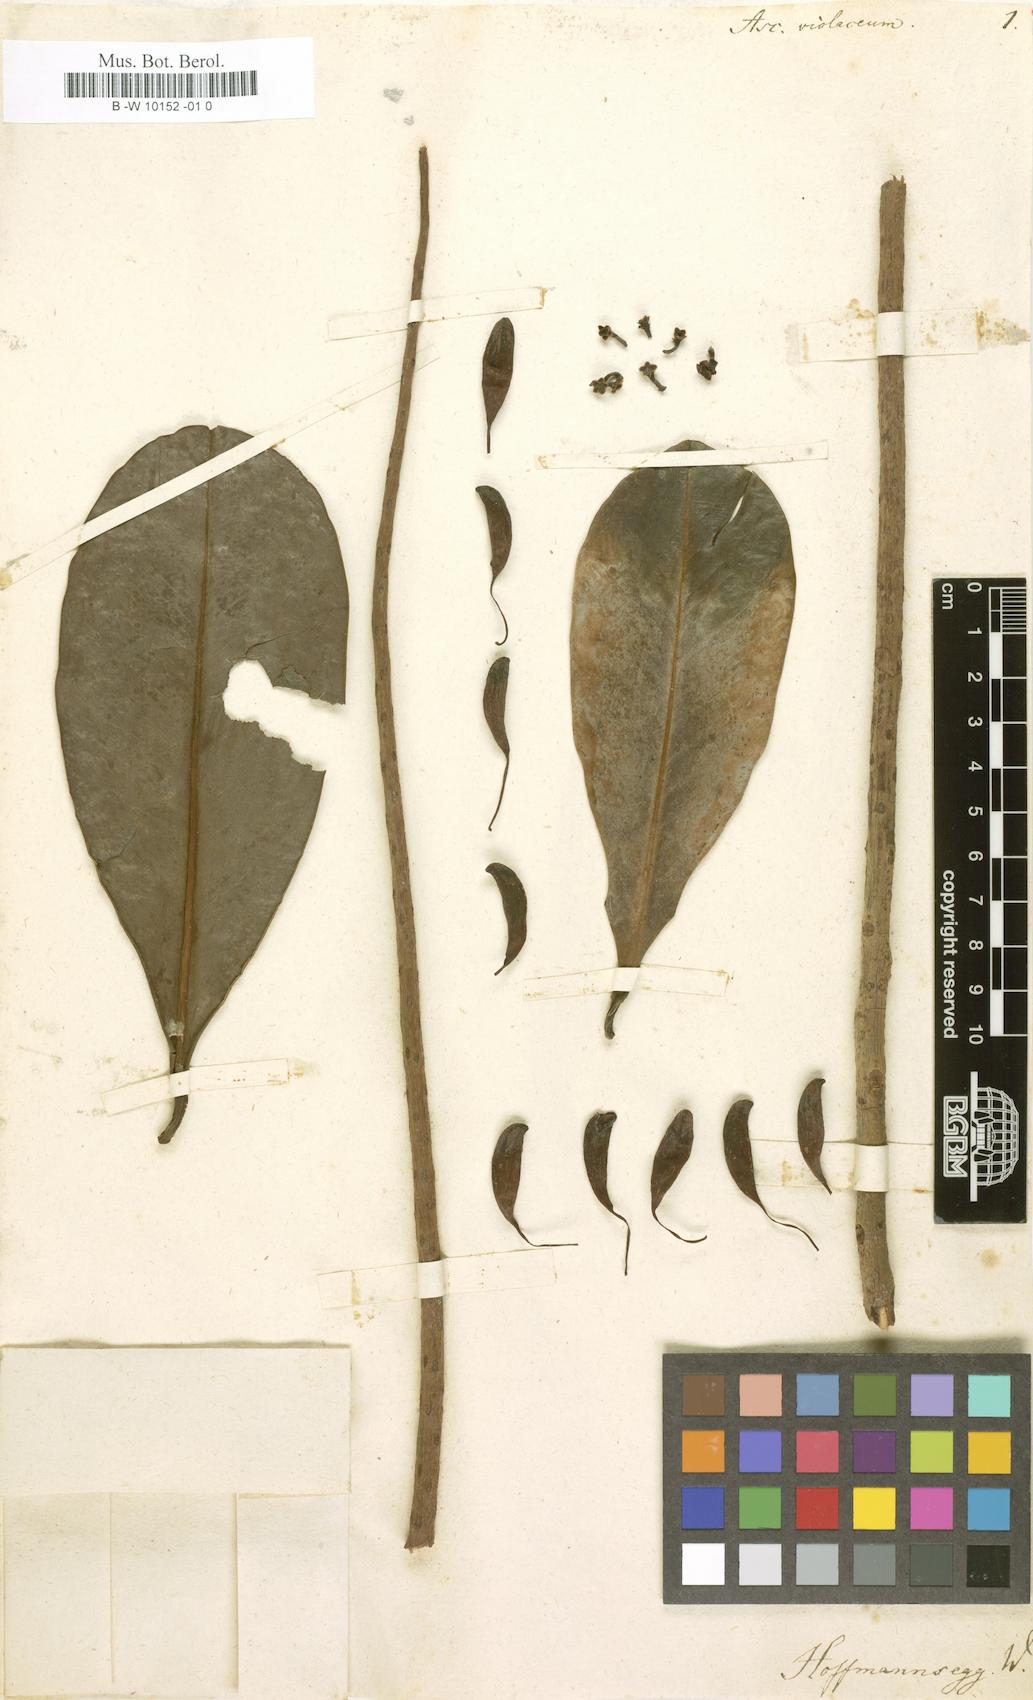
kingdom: Plantae
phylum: Tracheophyta
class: Magnoliopsida
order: Ericales
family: Marcgraviaceae
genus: Norantea
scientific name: Norantea guianensis
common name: Red hot poker vine
